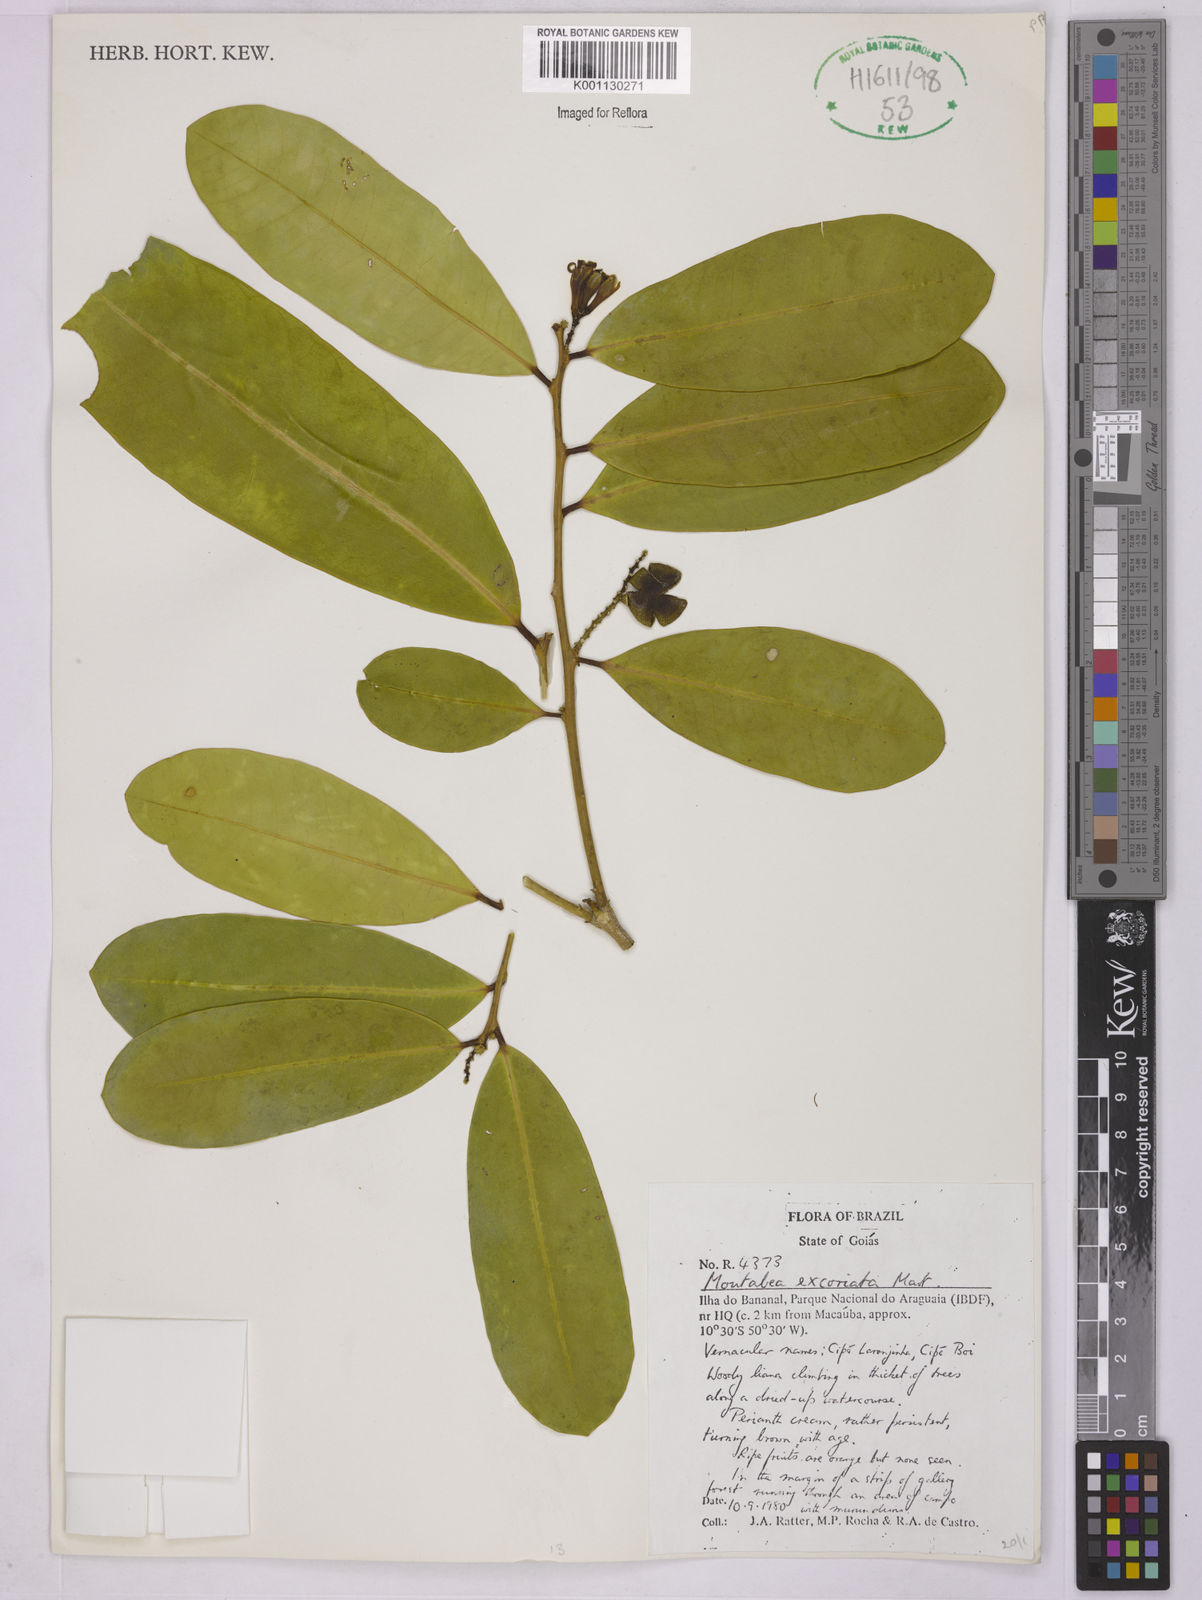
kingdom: Plantae
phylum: Tracheophyta
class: Magnoliopsida
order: Fabales
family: Polygalaceae
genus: Moutabea
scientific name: Moutabea excoriata
